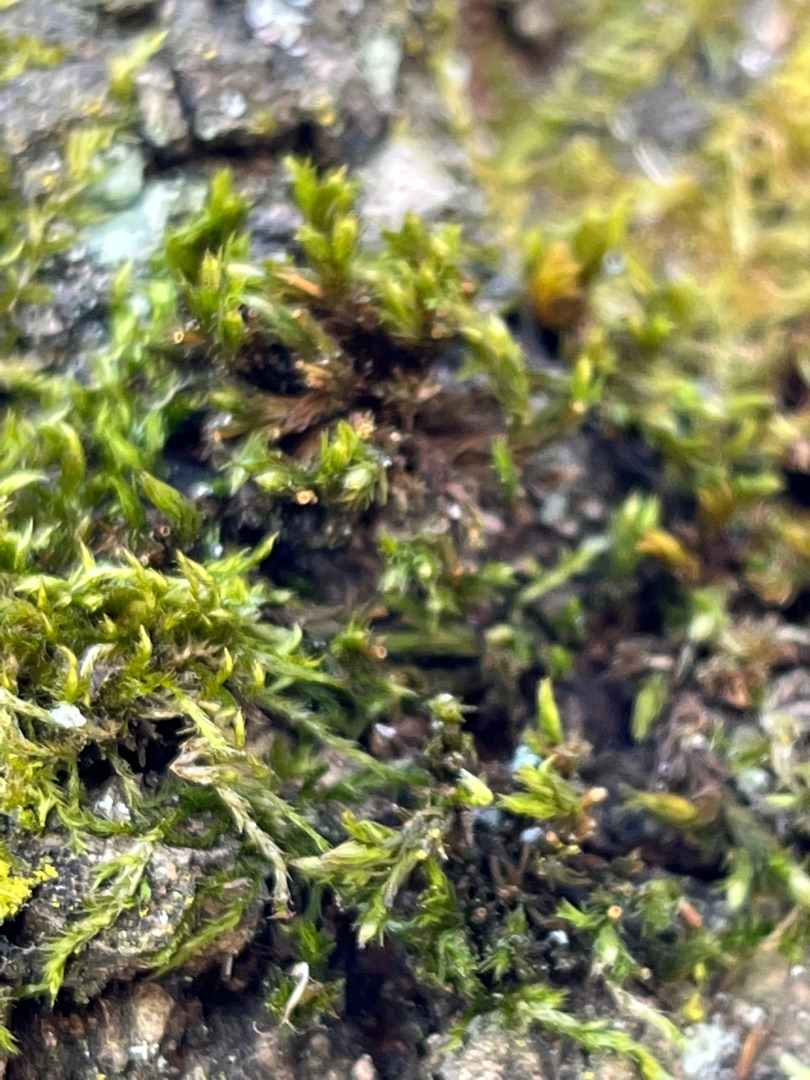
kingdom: Plantae
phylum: Bryophyta
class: Bryopsida
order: Hypnales
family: Hypnaceae
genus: Hypnum
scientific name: Hypnum
